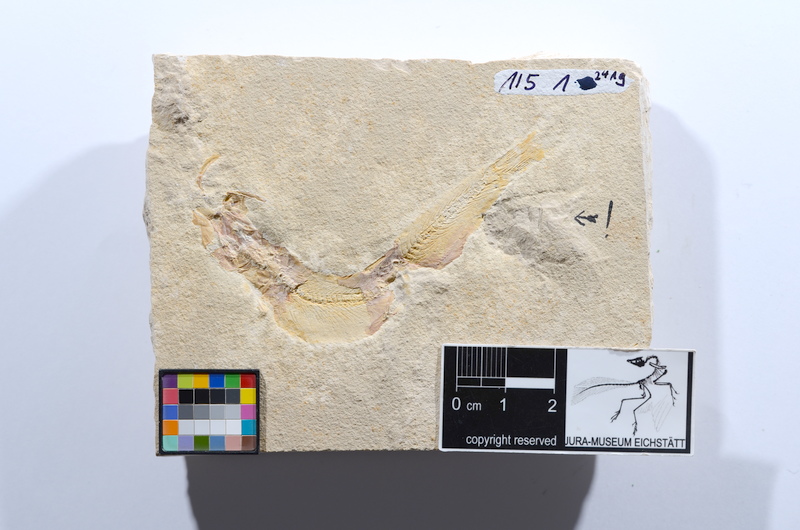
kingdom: Animalia
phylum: Chordata
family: Ascalaboidae
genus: Tharsis
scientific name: Tharsis
